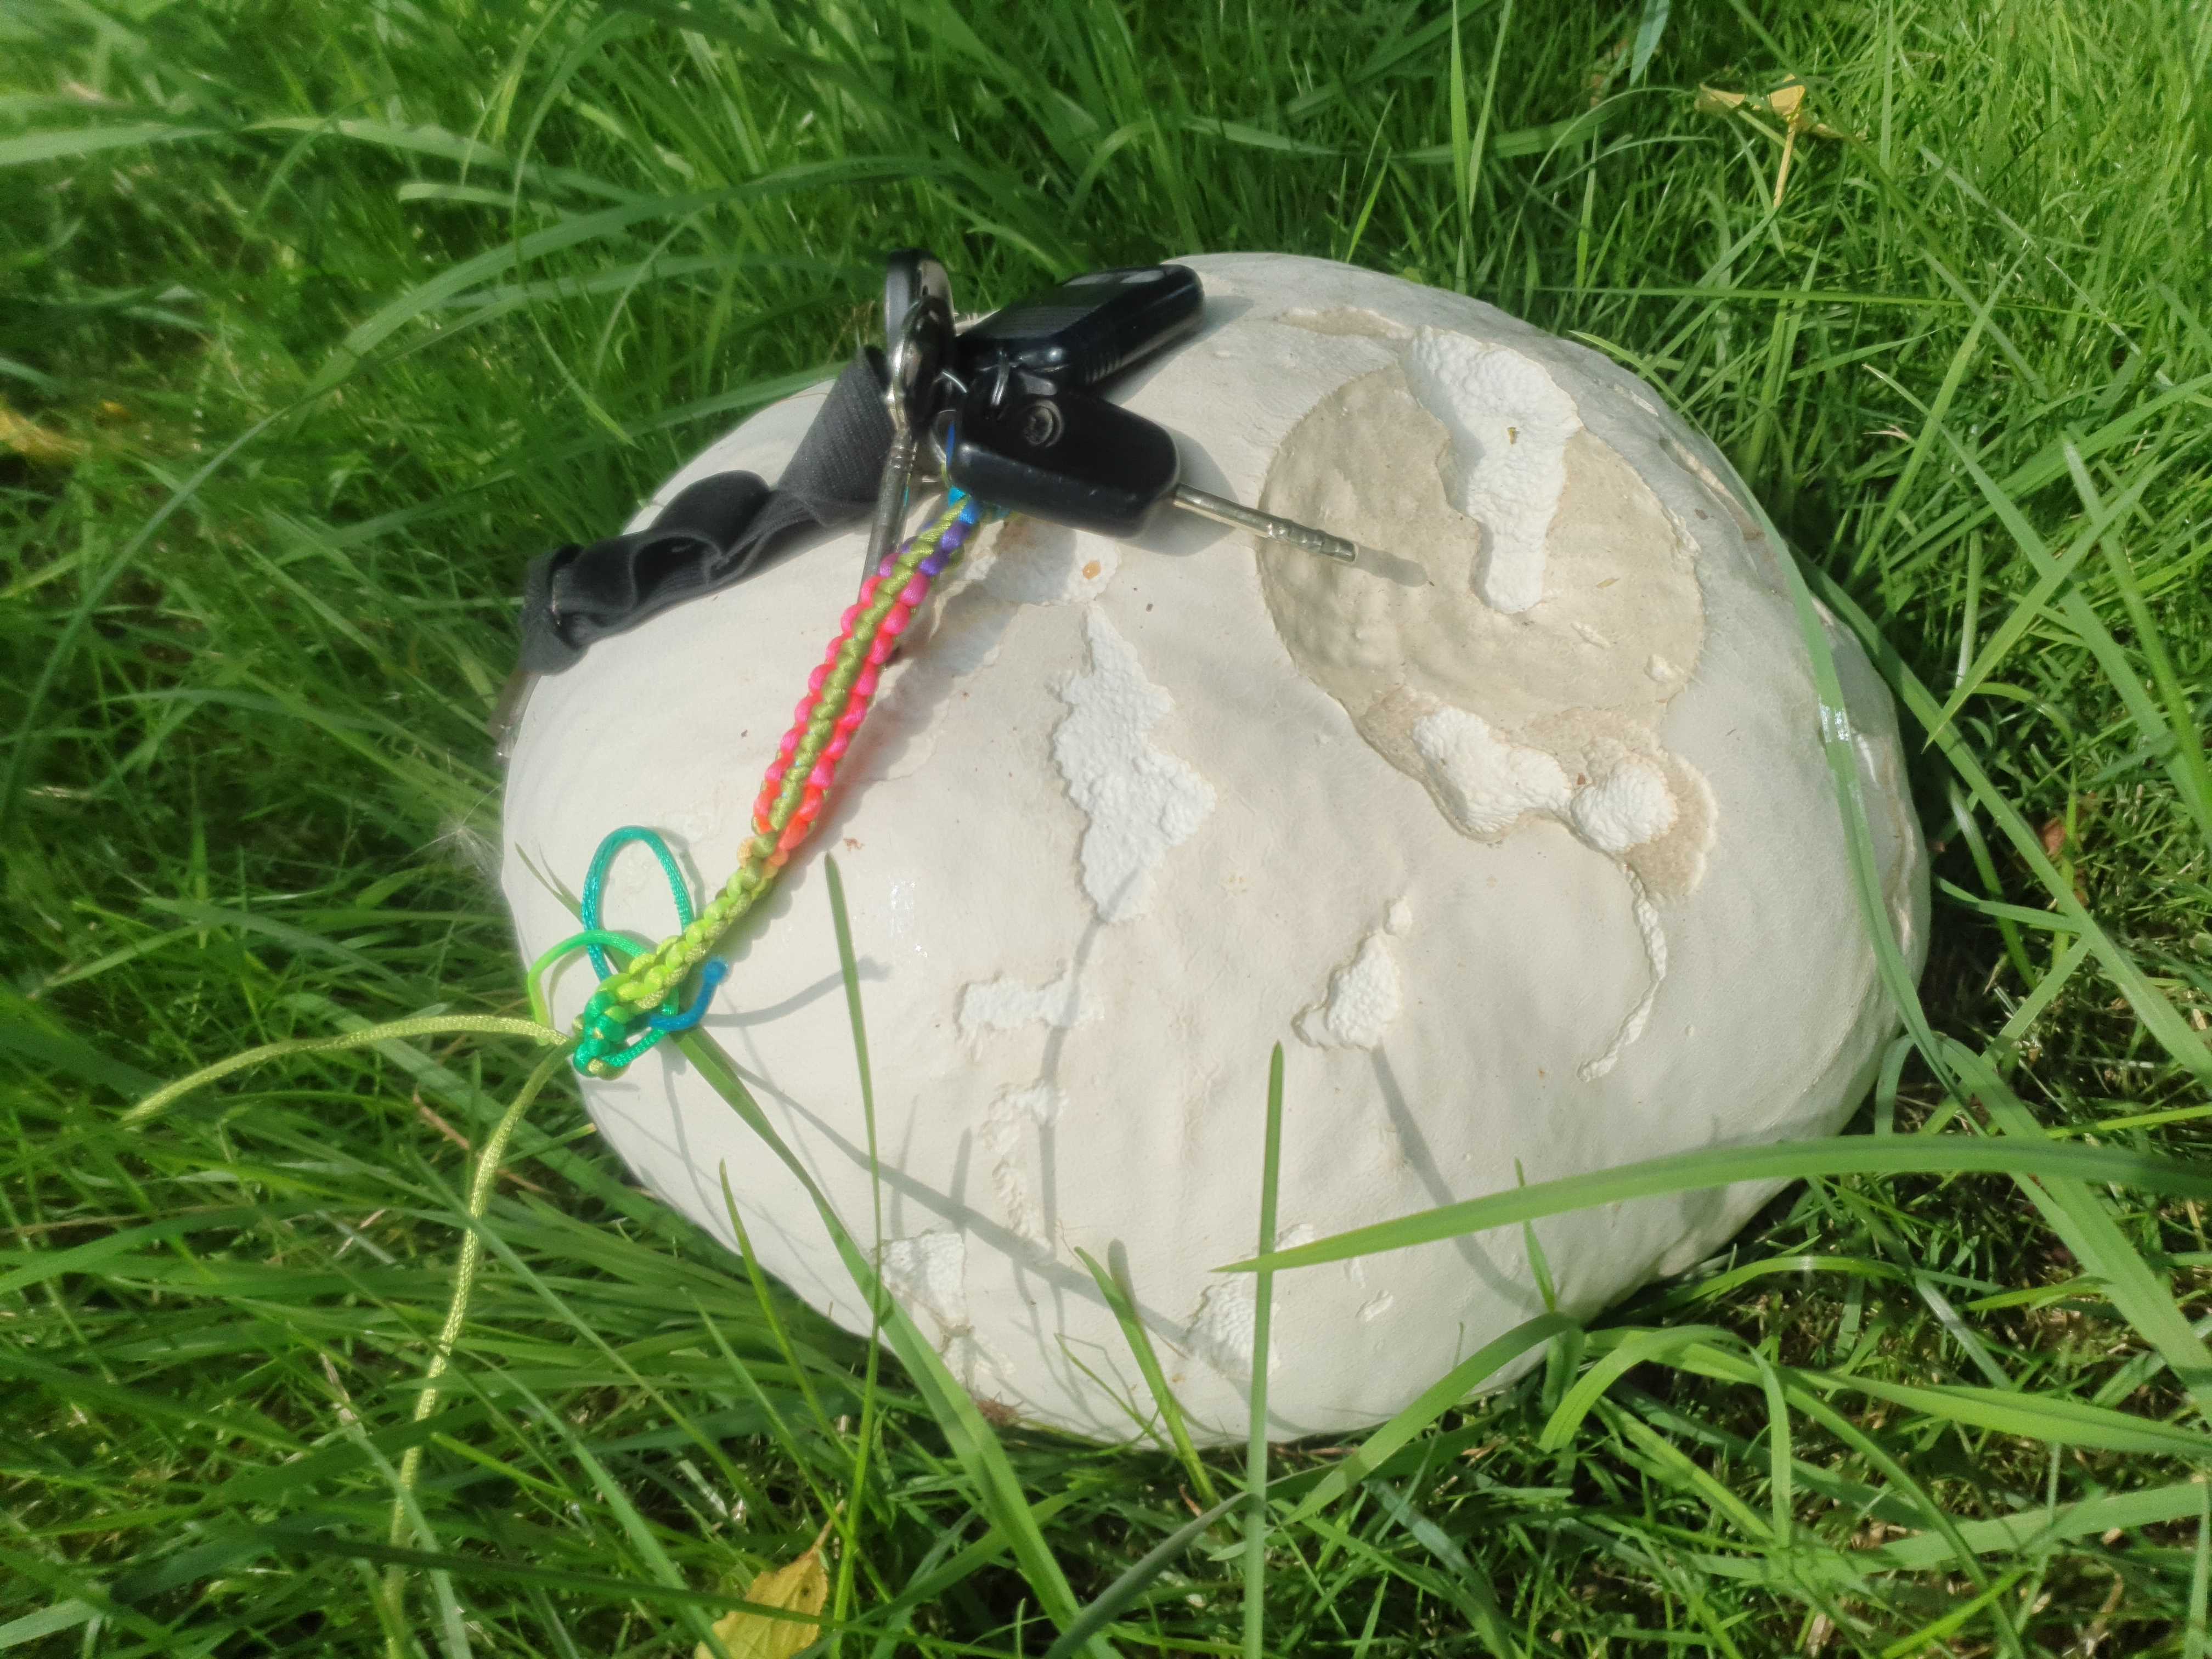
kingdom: Fungi
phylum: Basidiomycota
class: Agaricomycetes
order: Agaricales
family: Lycoperdaceae
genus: Calvatia
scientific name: Calvatia gigantea
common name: kæmpestøvbold
